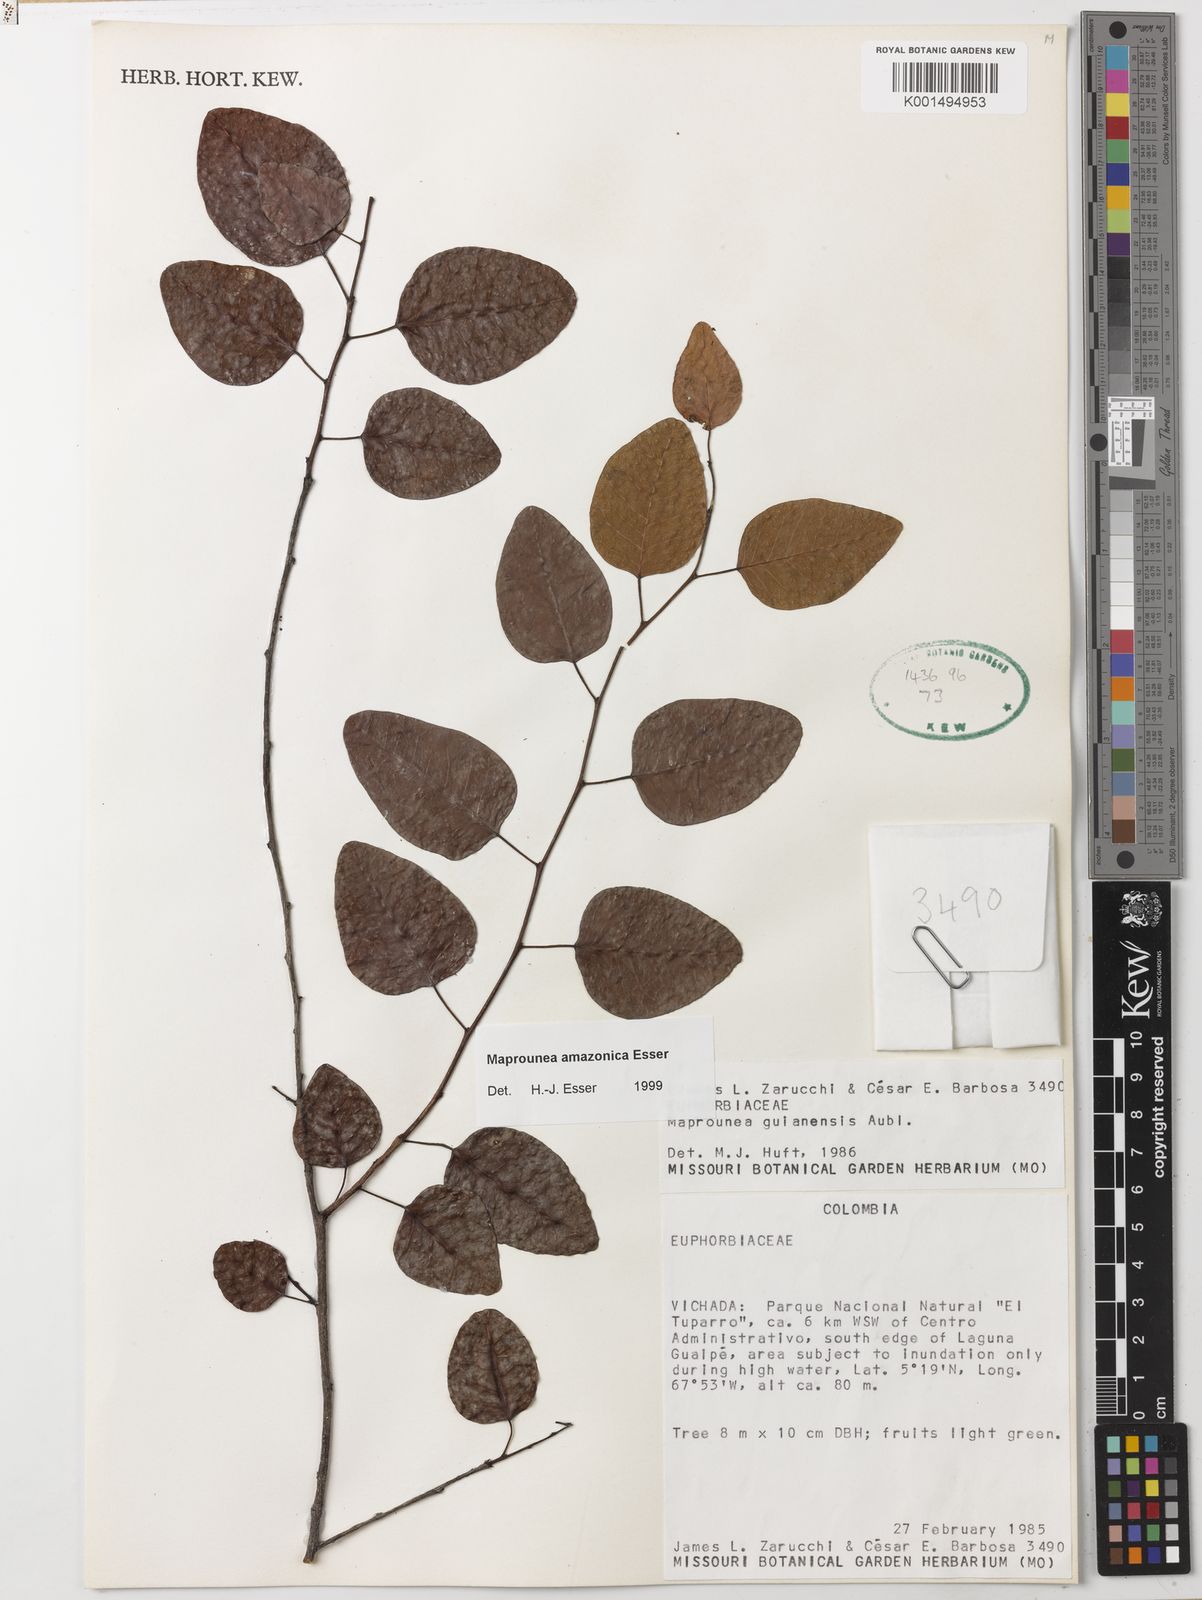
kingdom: Plantae
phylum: Tracheophyta
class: Magnoliopsida
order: Malpighiales
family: Euphorbiaceae
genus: Maprounea
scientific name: Maprounea amazonica
